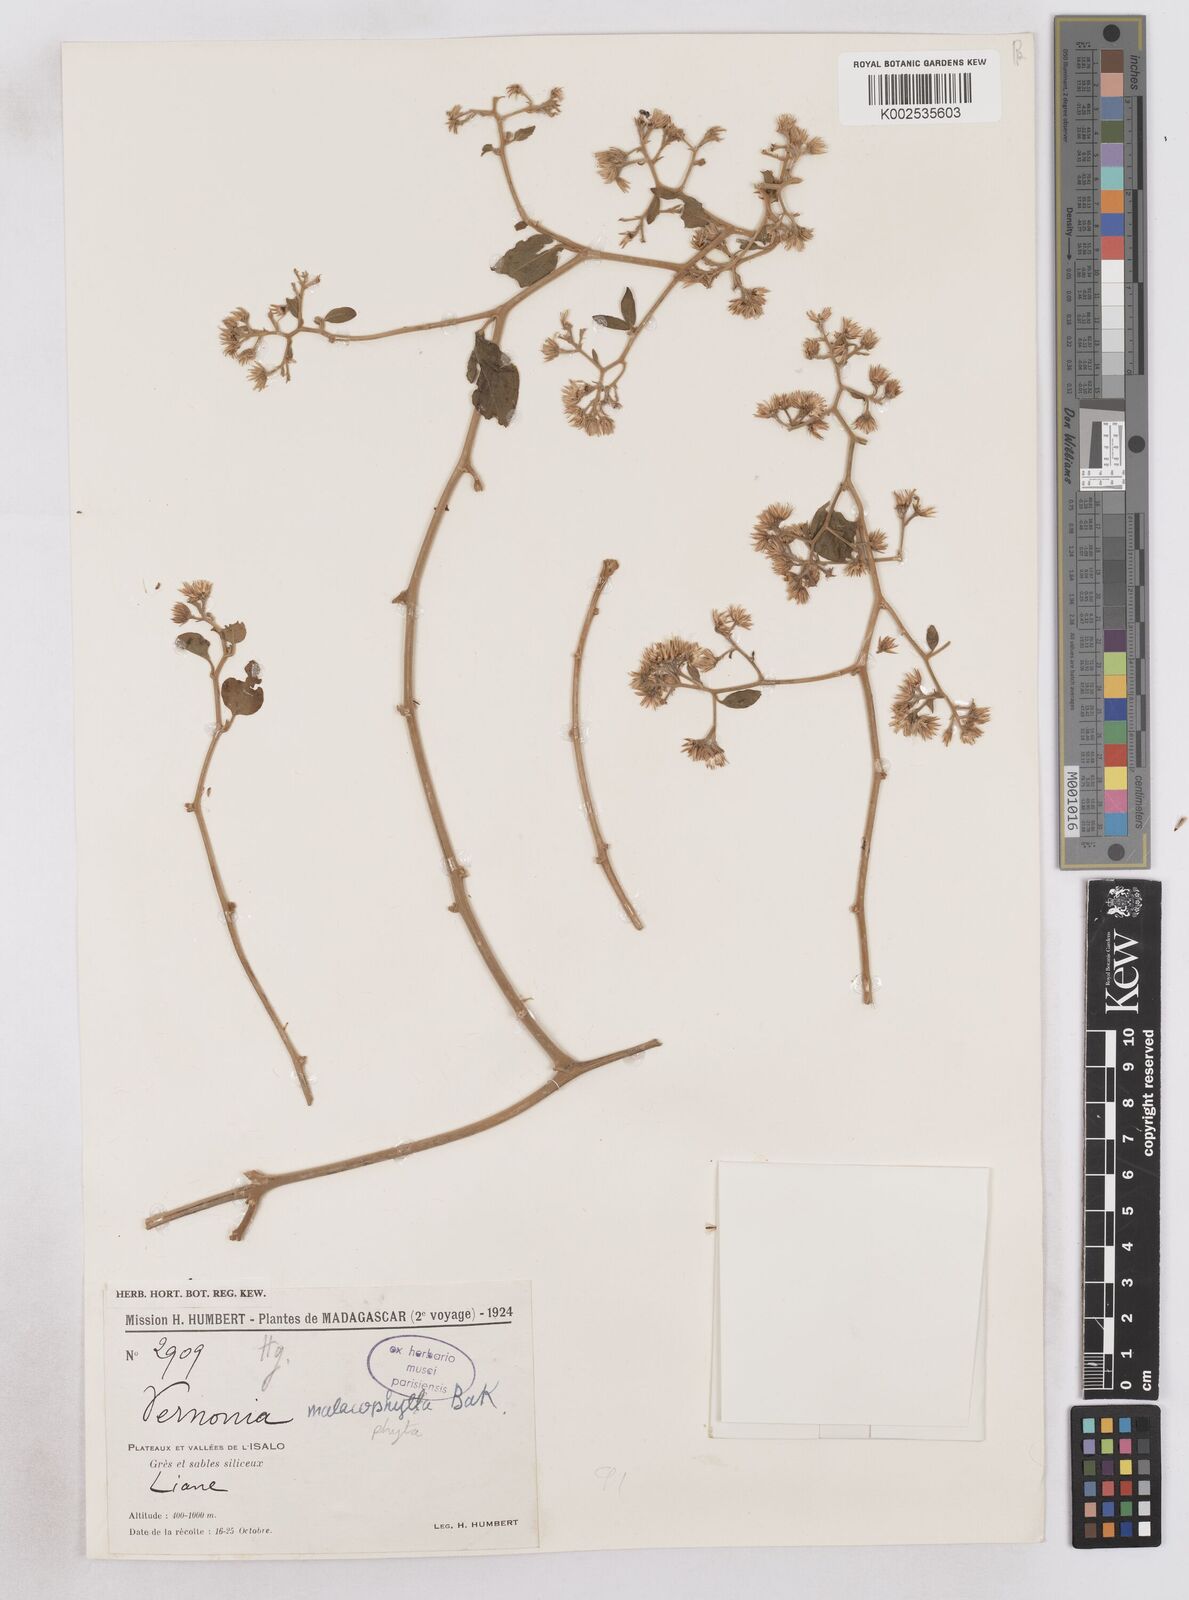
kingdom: Plantae
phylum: Tracheophyta
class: Magnoliopsida
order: Asterales
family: Asteraceae
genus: Distephanus
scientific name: Distephanus malacophytus
